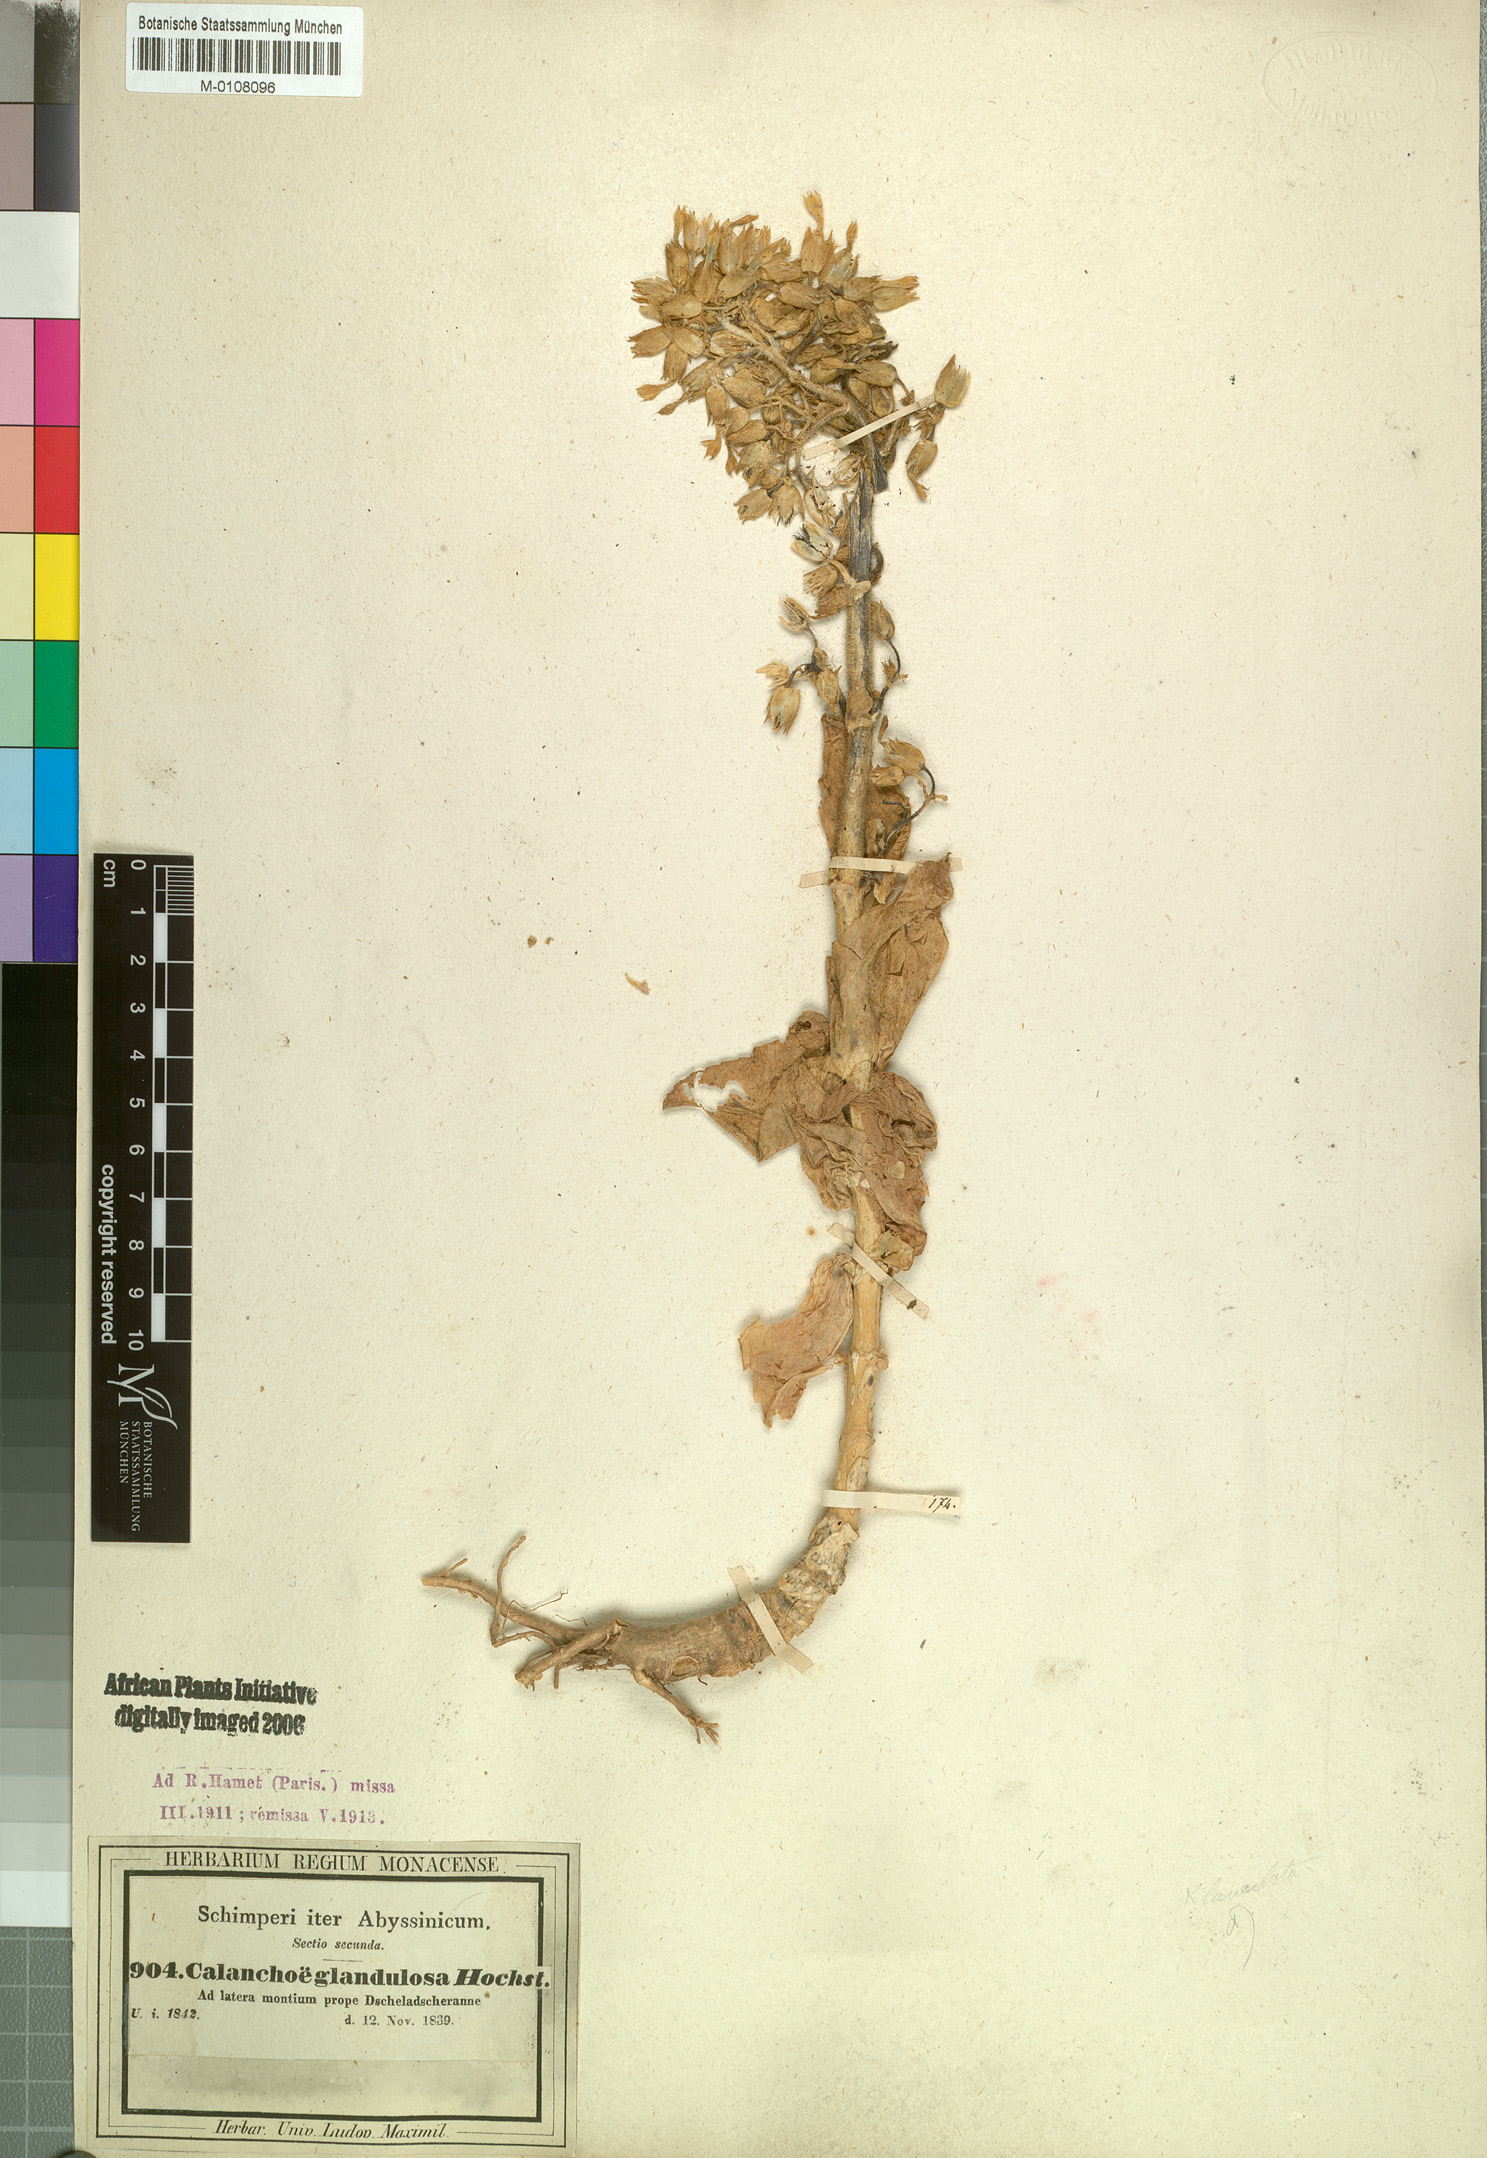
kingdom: Plantae
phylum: Tracheophyta
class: Magnoliopsida
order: Saxifragales
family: Crassulaceae
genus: Kalanchoe
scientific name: Kalanchoe lanceolata
